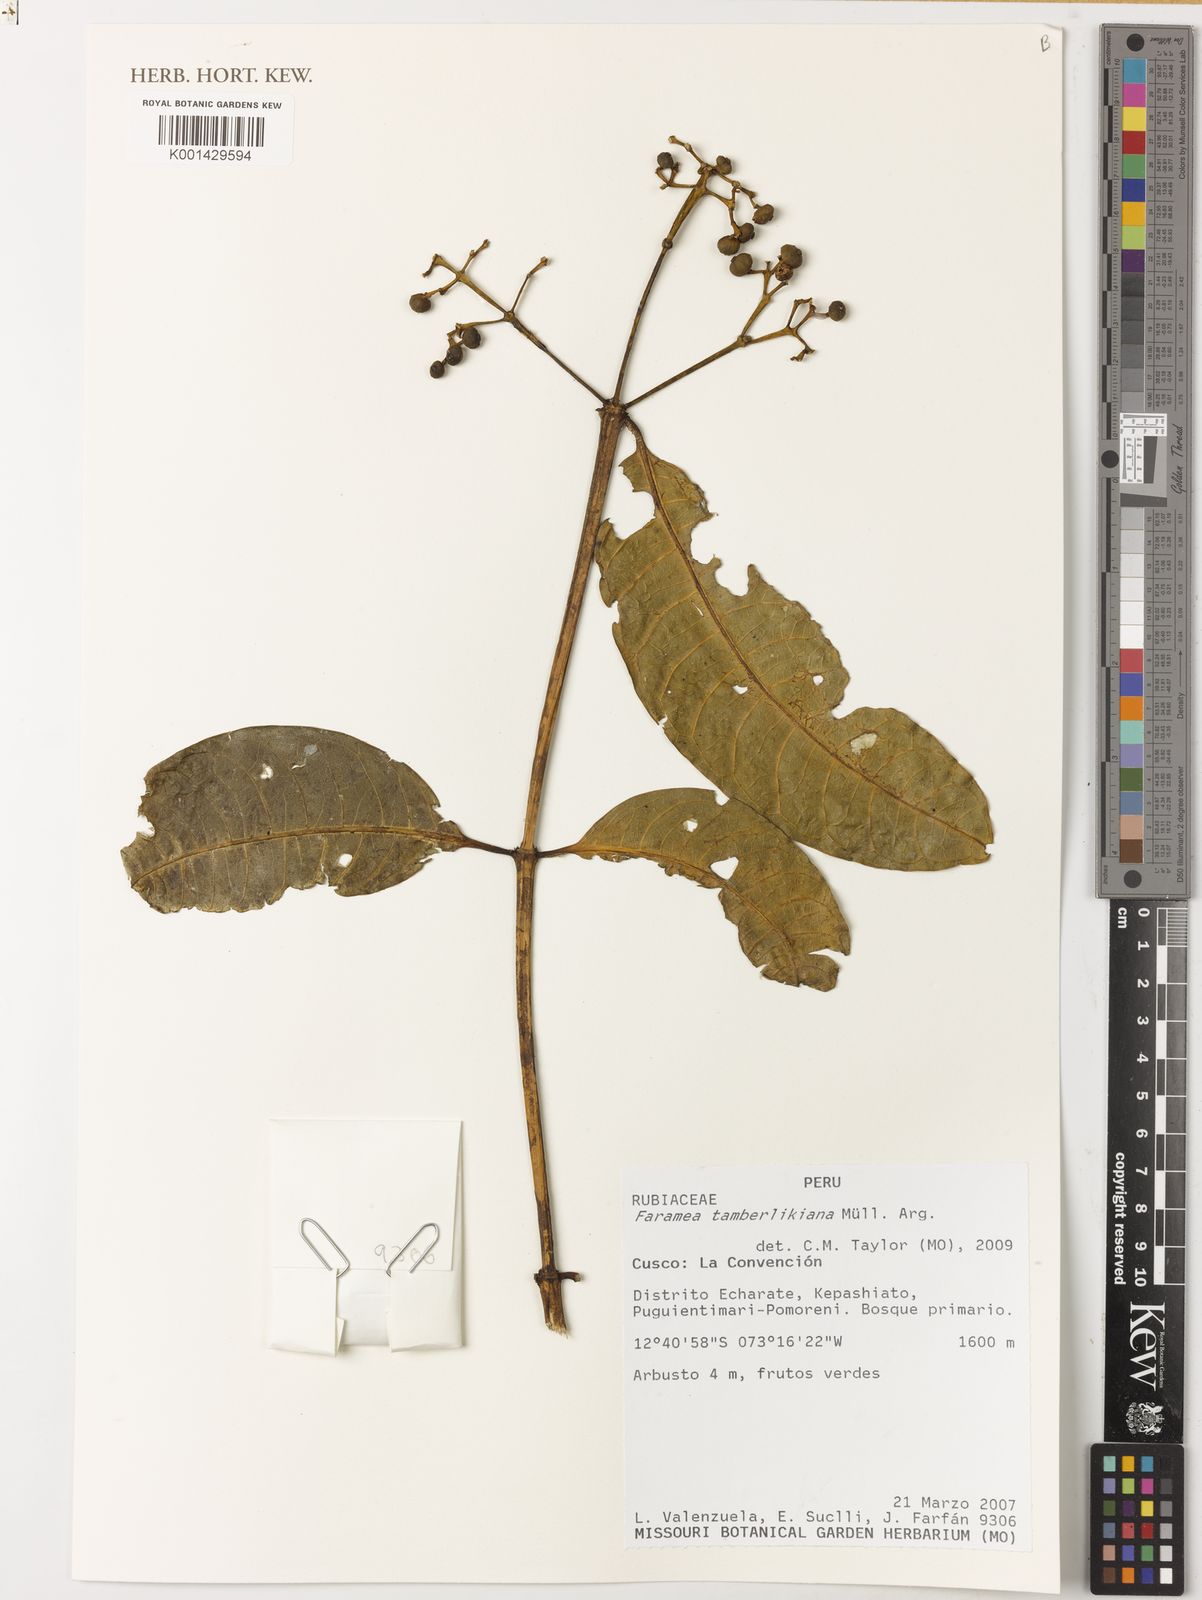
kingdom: Plantae
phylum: Tracheophyta
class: Magnoliopsida
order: Gentianales
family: Rubiaceae
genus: Faramea
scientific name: Faramea
